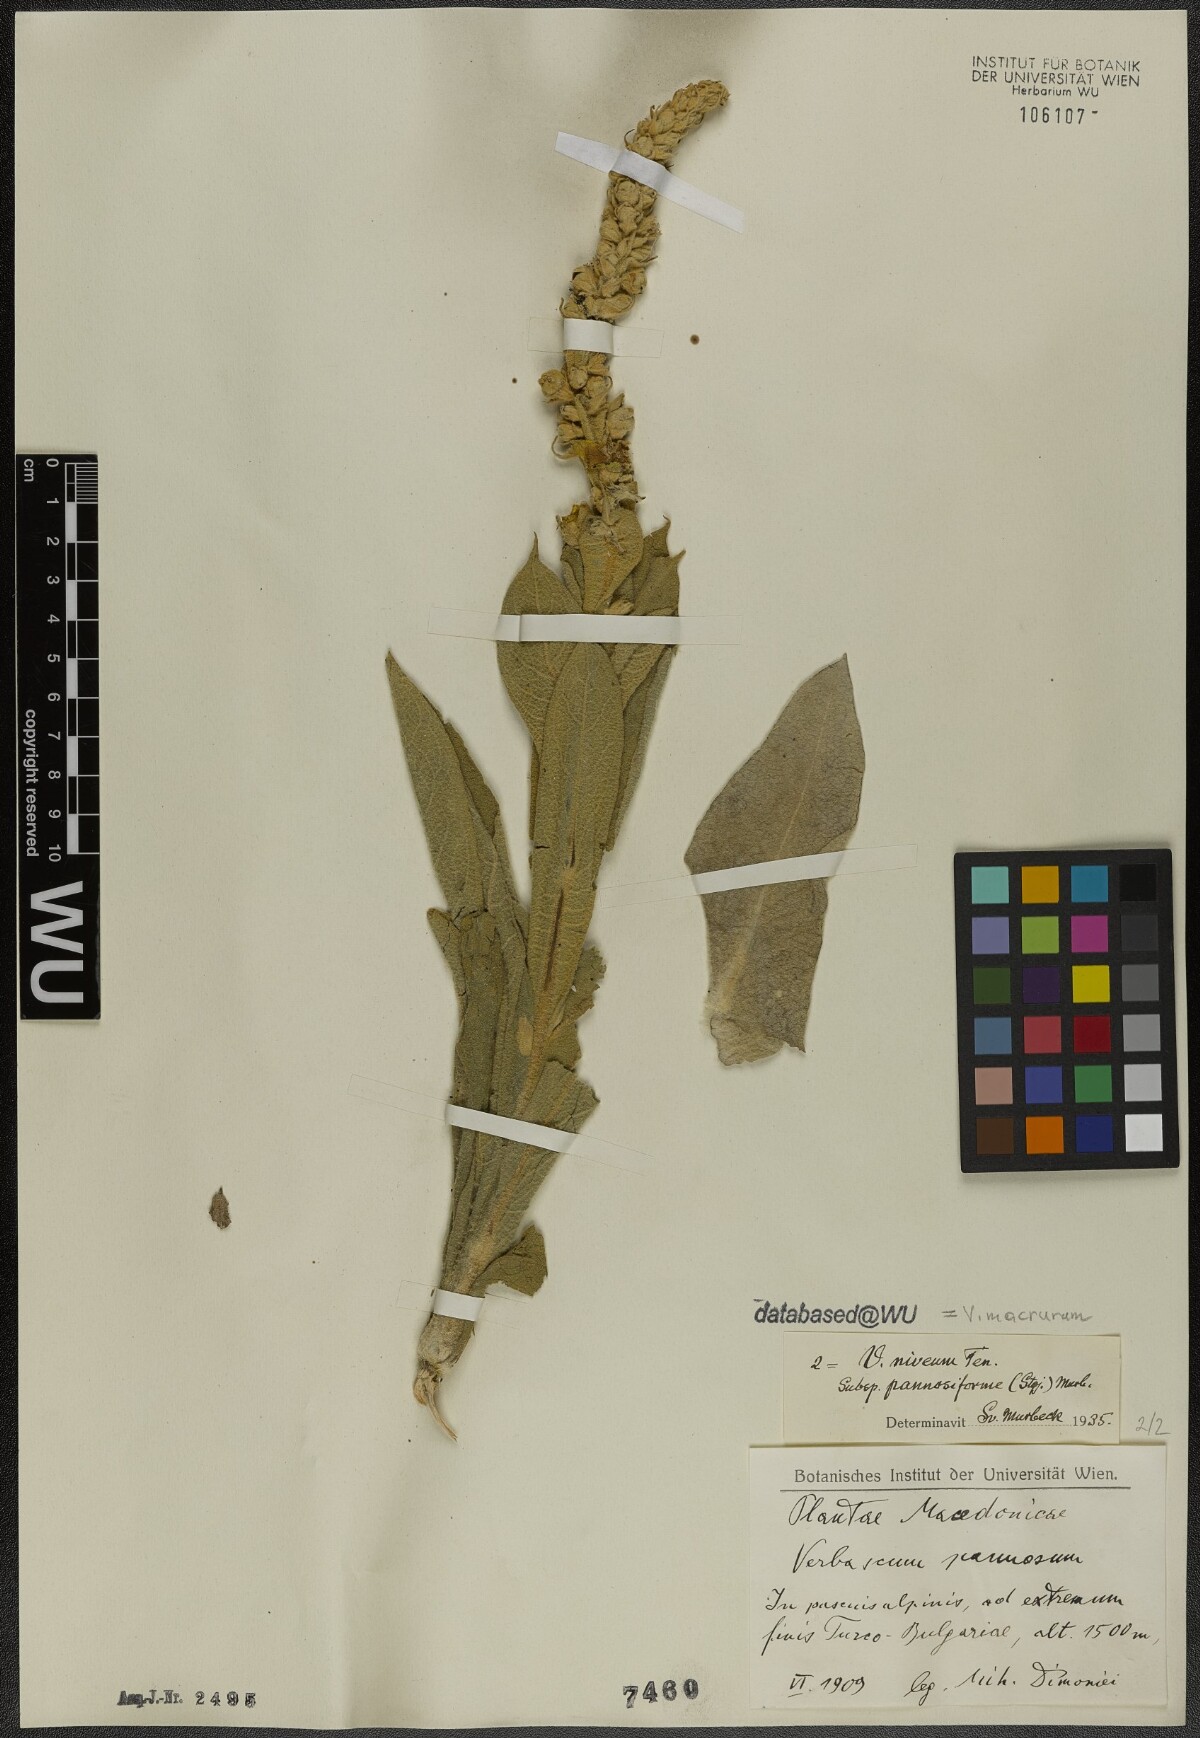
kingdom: Plantae
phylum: Tracheophyta
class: Magnoliopsida
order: Lamiales
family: Scrophulariaceae
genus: Verbascum
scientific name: Verbascum macrurum
